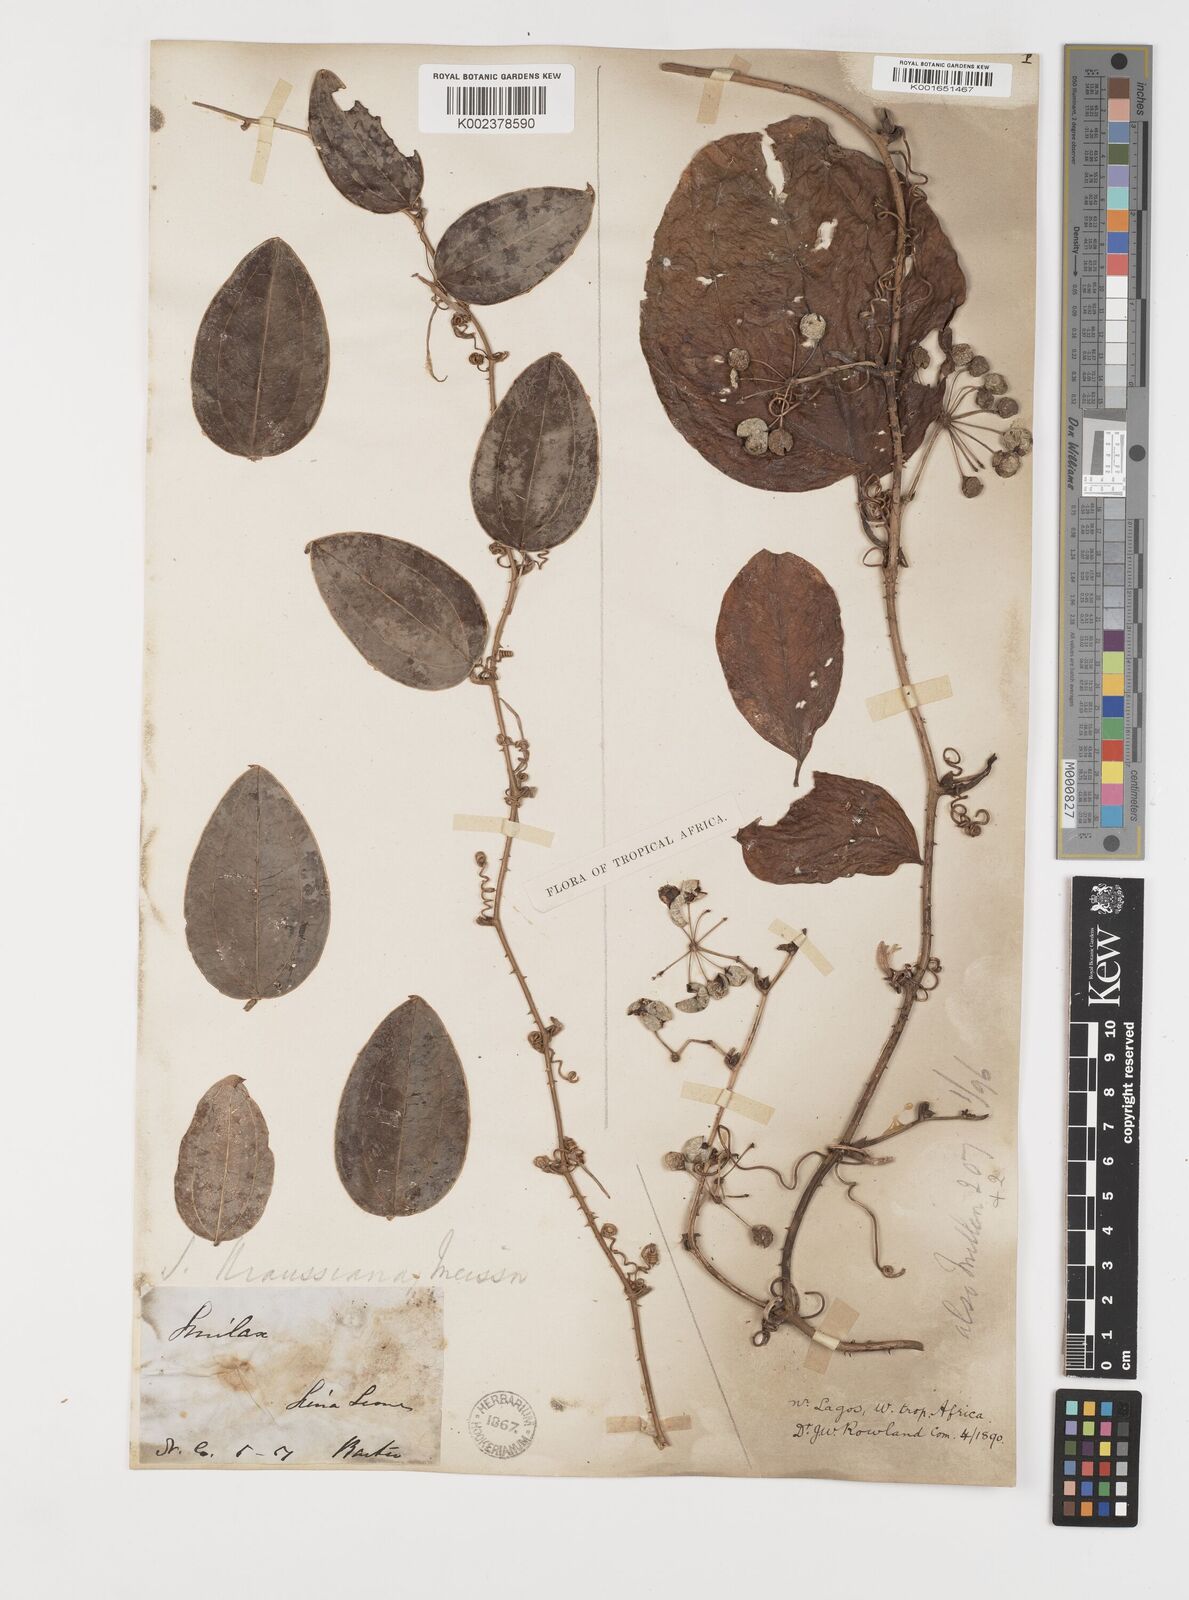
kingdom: Plantae
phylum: Tracheophyta
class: Liliopsida
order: Liliales
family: Smilacaceae
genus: Smilax
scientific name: Smilax anceps
